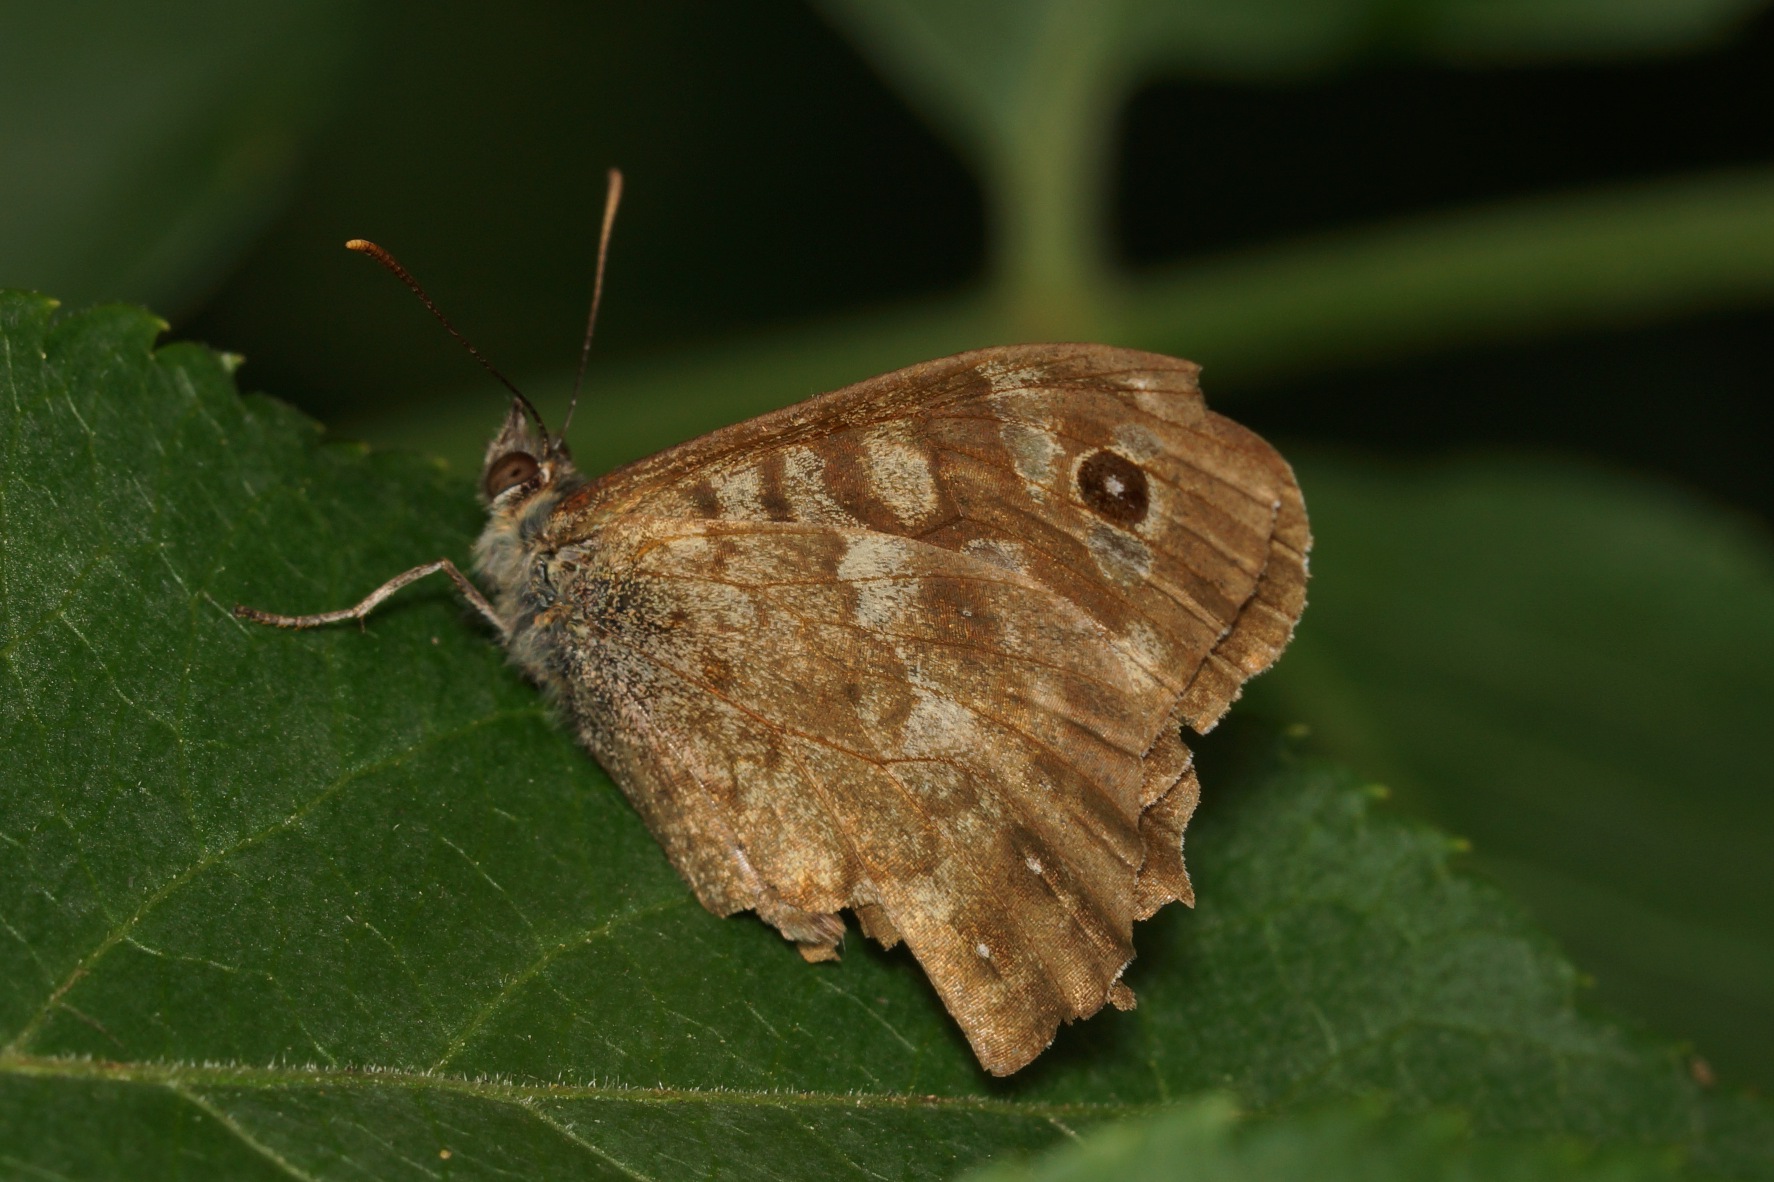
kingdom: Animalia
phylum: Arthropoda
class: Insecta
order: Lepidoptera
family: Nymphalidae
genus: Pararge
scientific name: Pararge aegeria
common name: Skovrandøje
